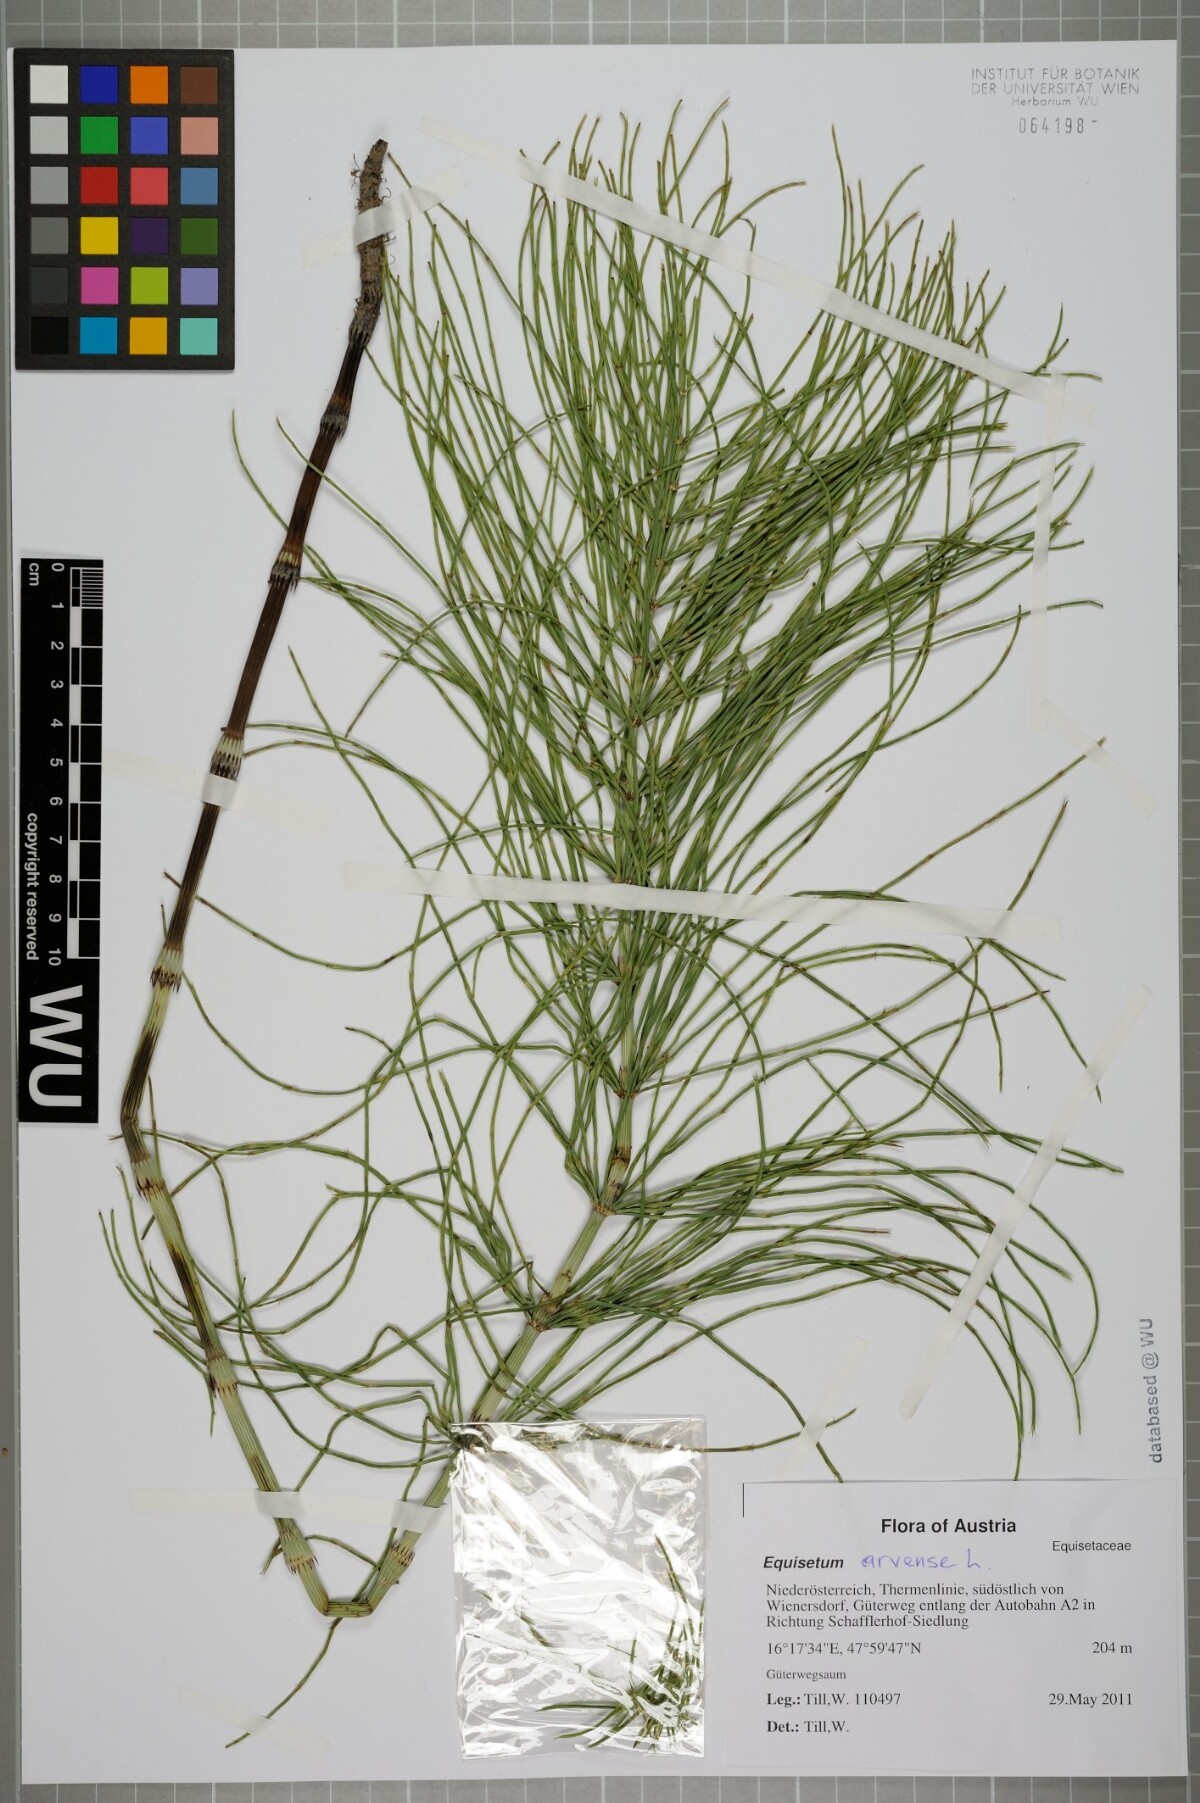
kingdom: Plantae
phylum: Tracheophyta
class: Polypodiopsida
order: Equisetales
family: Equisetaceae
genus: Equisetum
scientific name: Equisetum arvense
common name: Field horsetail
